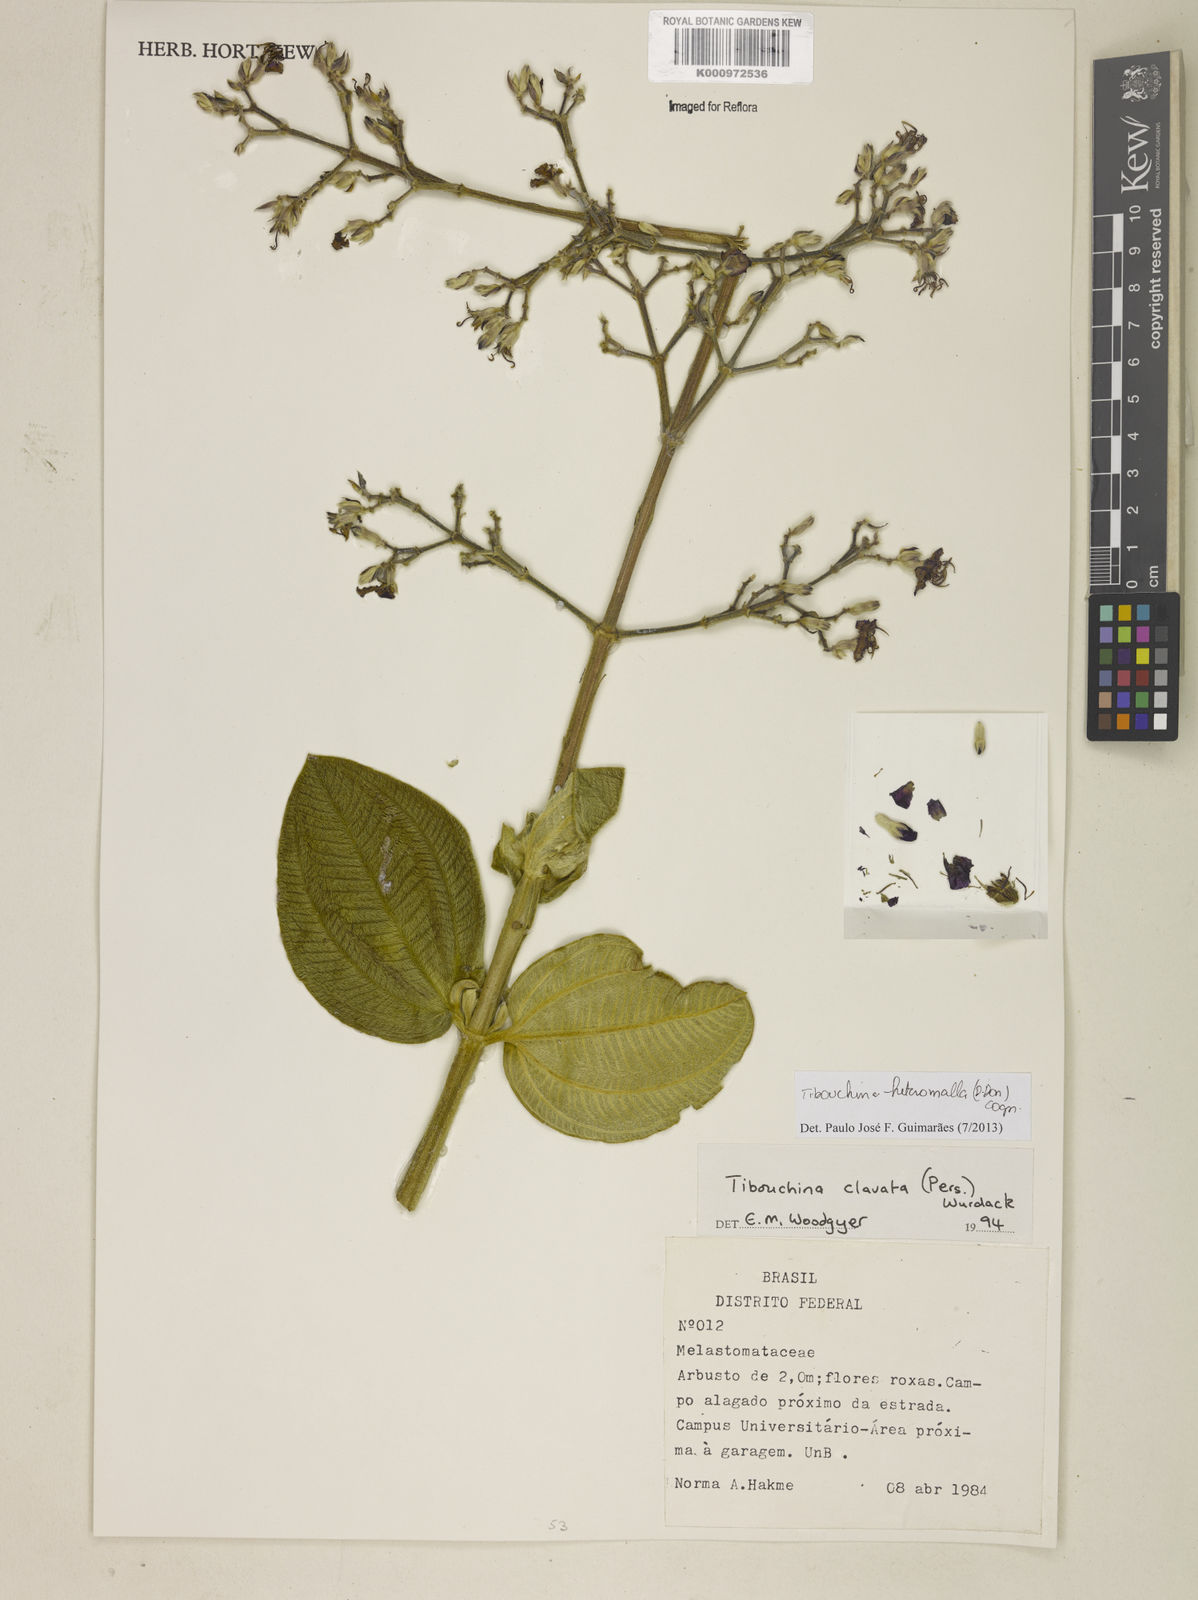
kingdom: Plantae
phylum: Tracheophyta
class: Magnoliopsida
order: Myrtales
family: Melastomataceae
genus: Pleroma
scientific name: Pleroma heteromallum
